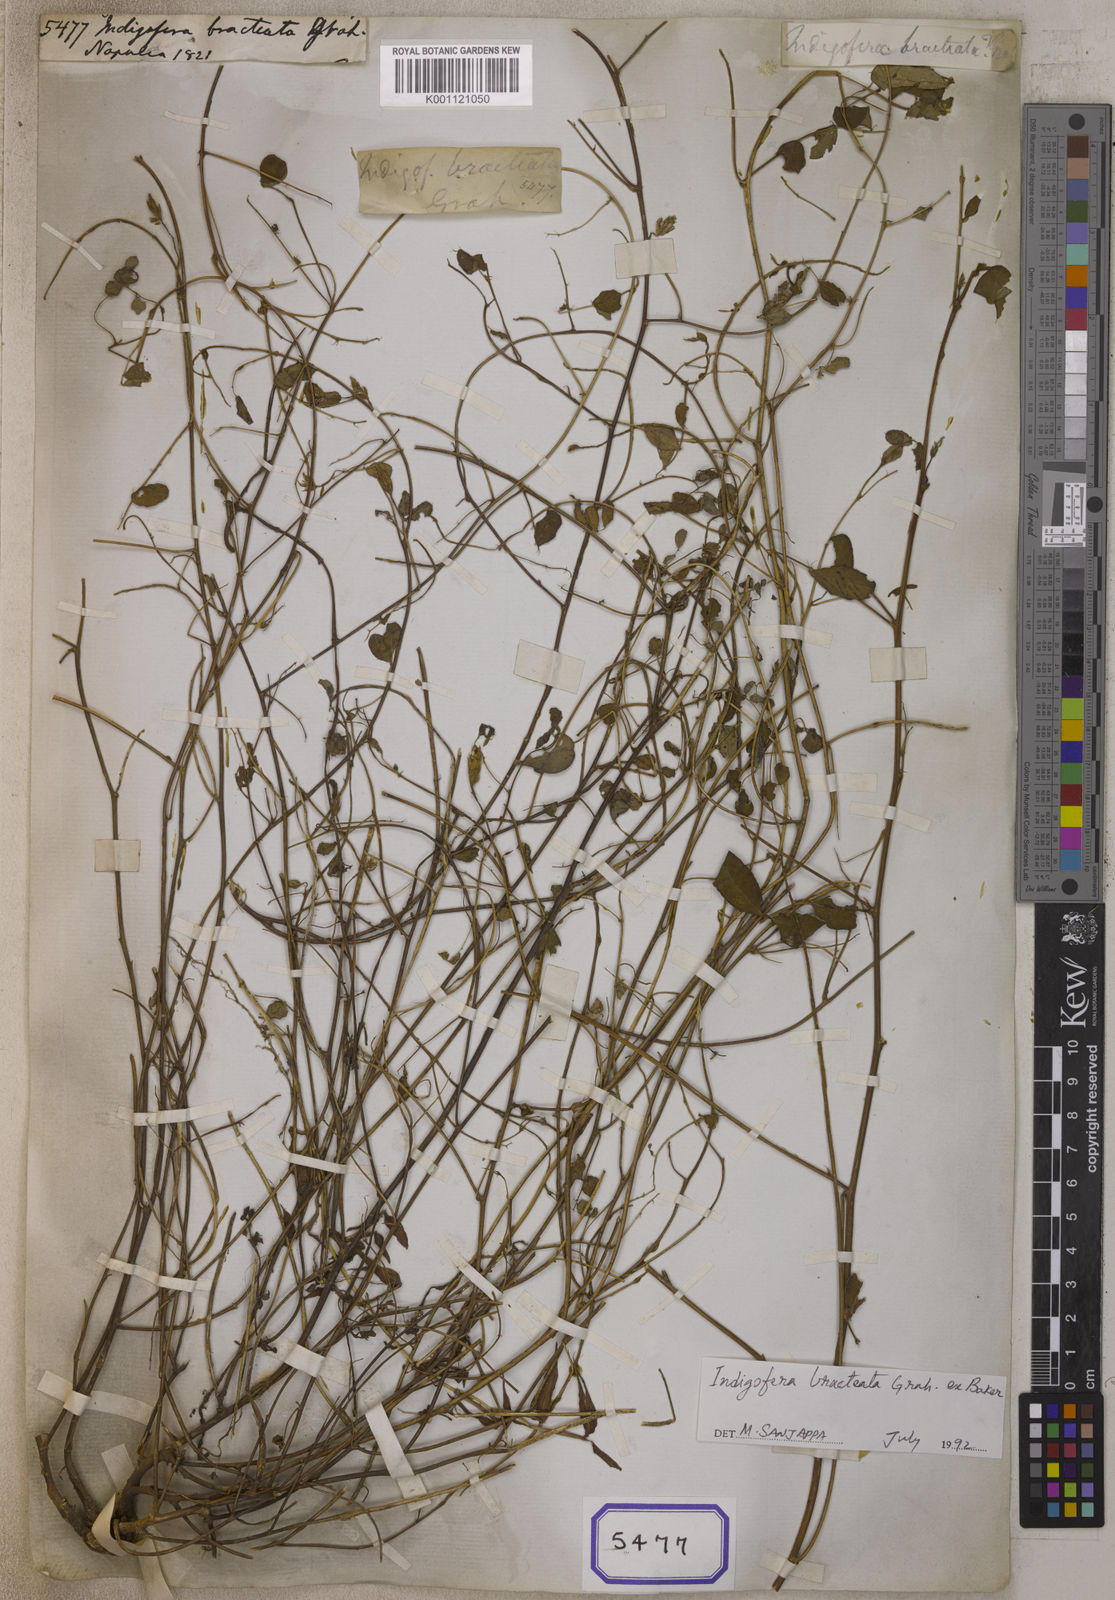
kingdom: Plantae
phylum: Tracheophyta
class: Magnoliopsida
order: Fabales
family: Fabaceae
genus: Indigofera
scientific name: Indigofera
